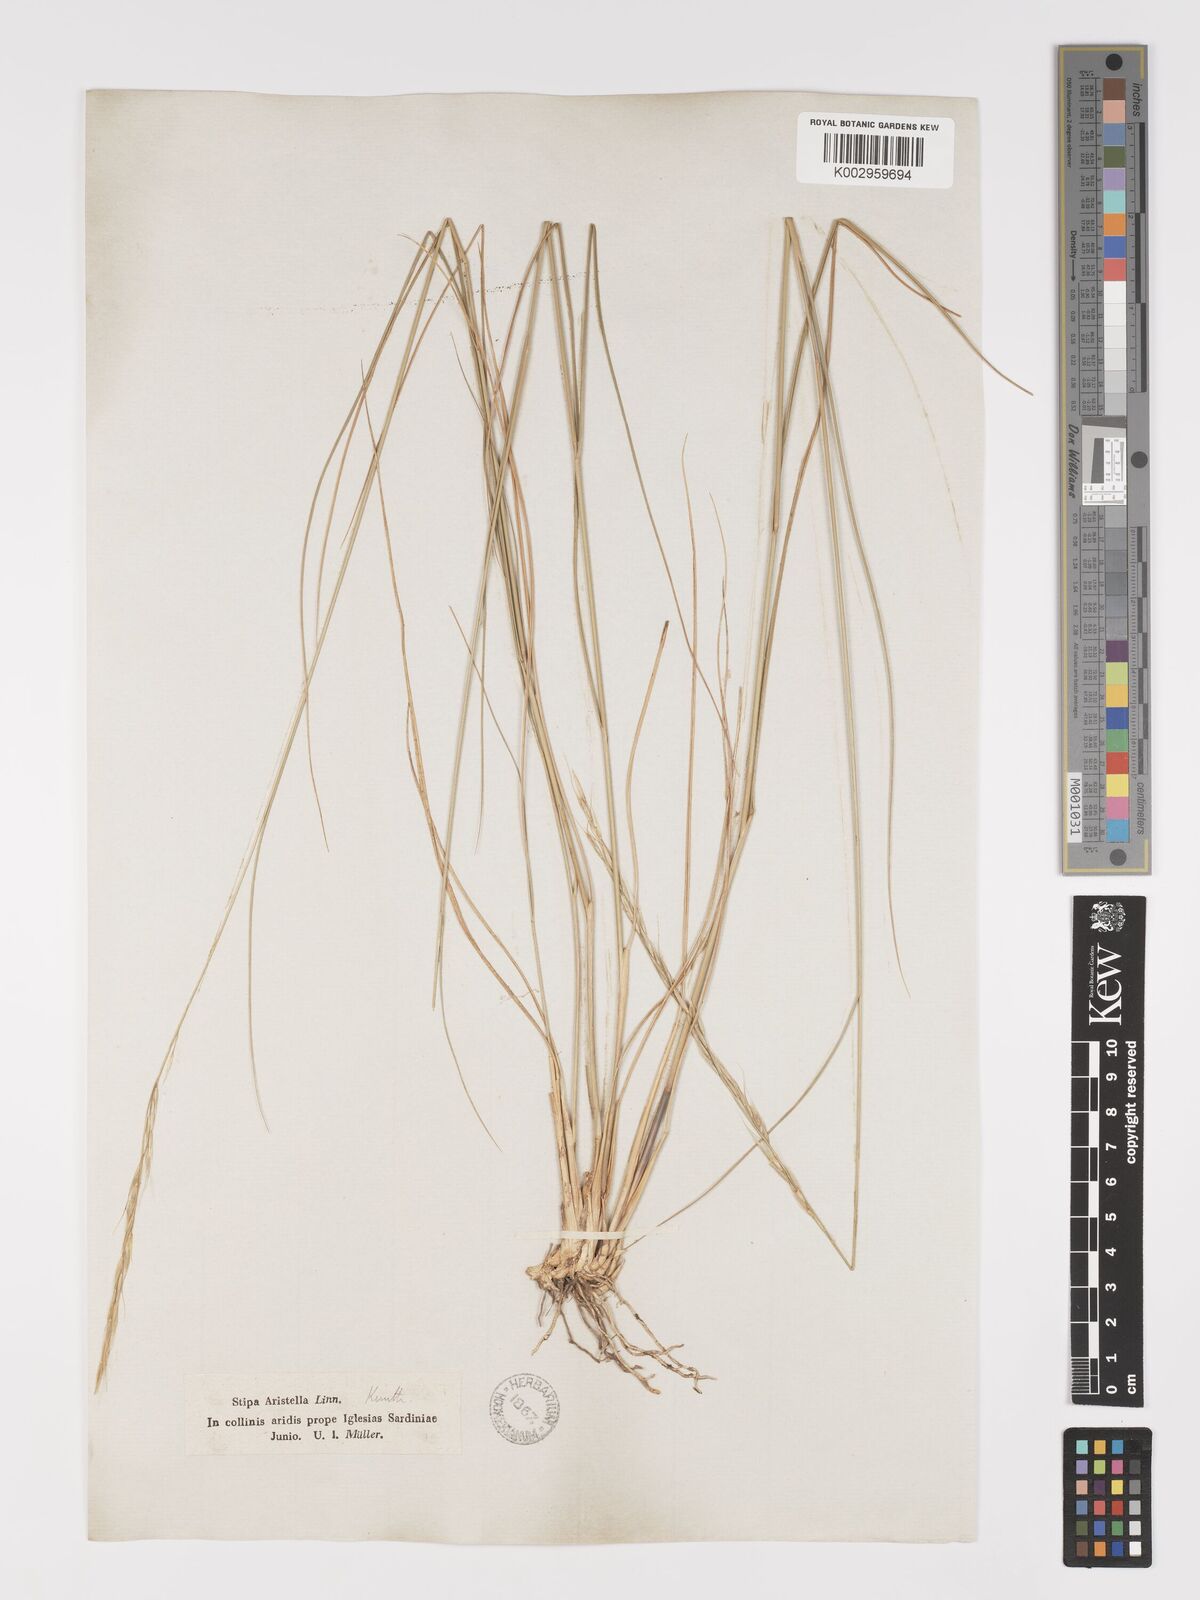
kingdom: Plantae
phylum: Tracheophyta
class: Liliopsida
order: Poales
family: Poaceae
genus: Achnatherum
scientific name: Achnatherum bromoides
